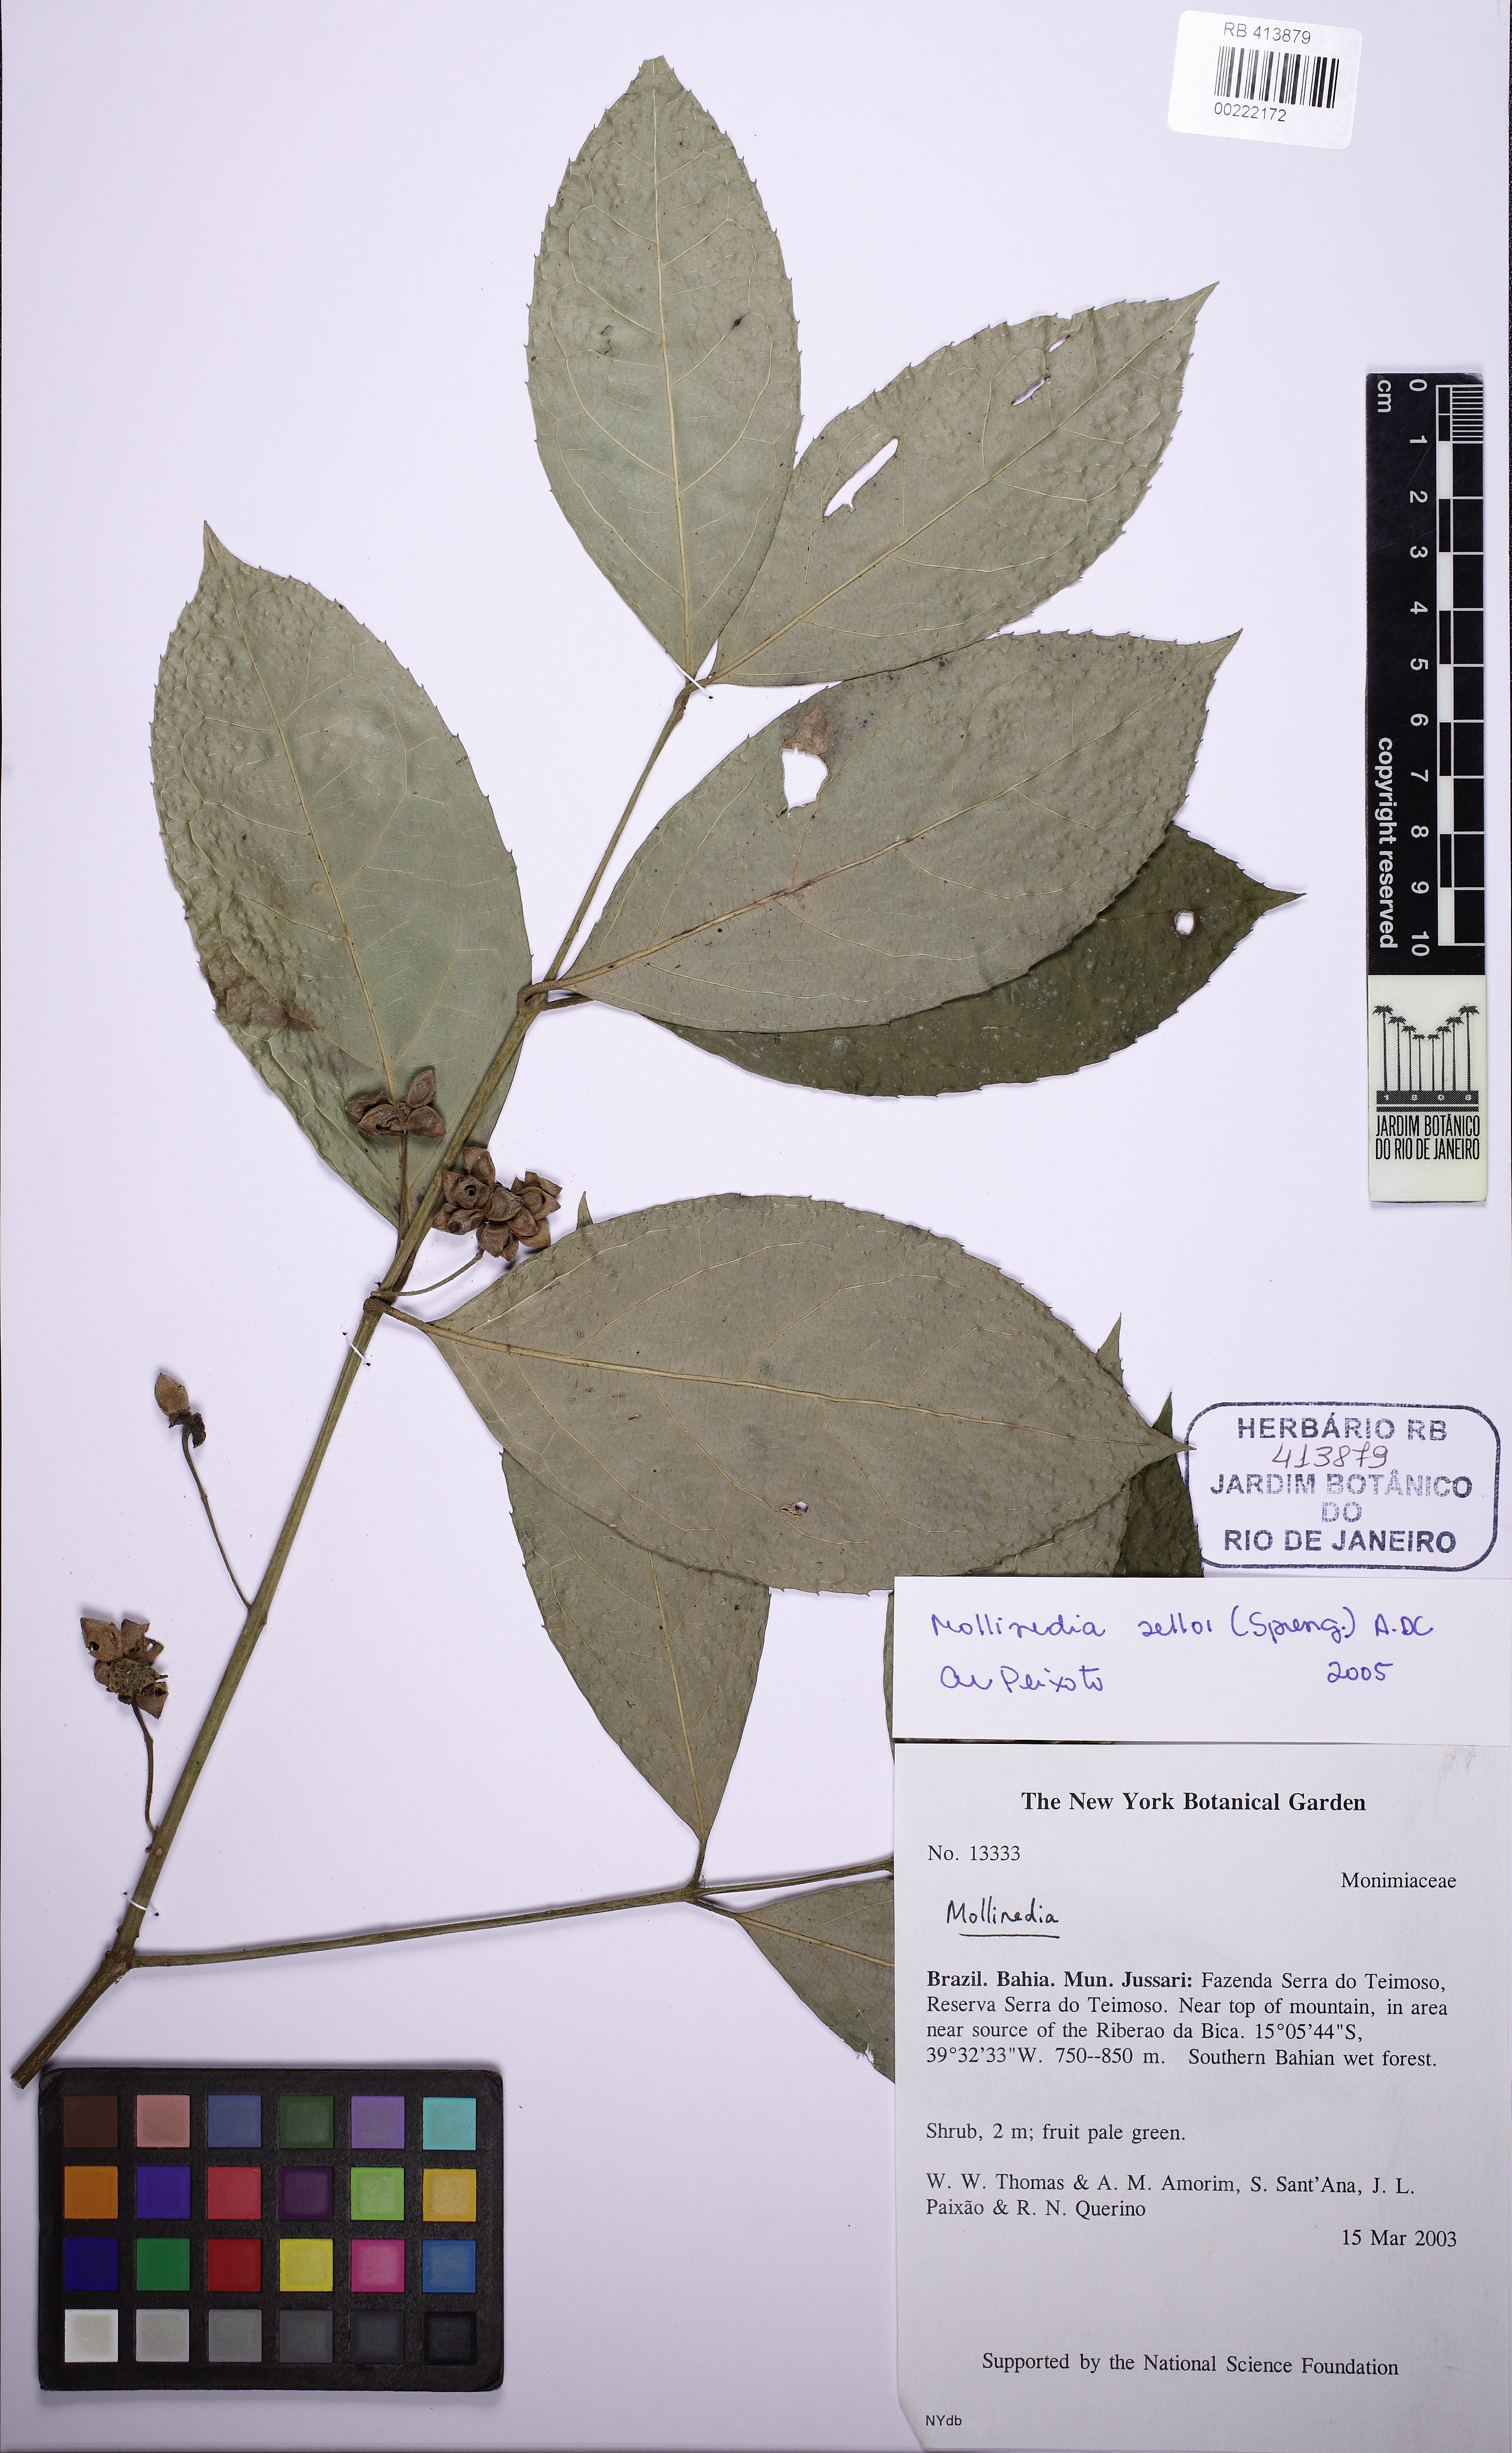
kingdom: Plantae
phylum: Tracheophyta
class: Magnoliopsida
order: Laurales
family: Monimiaceae
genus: Mollinedia
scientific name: Mollinedia ovata
